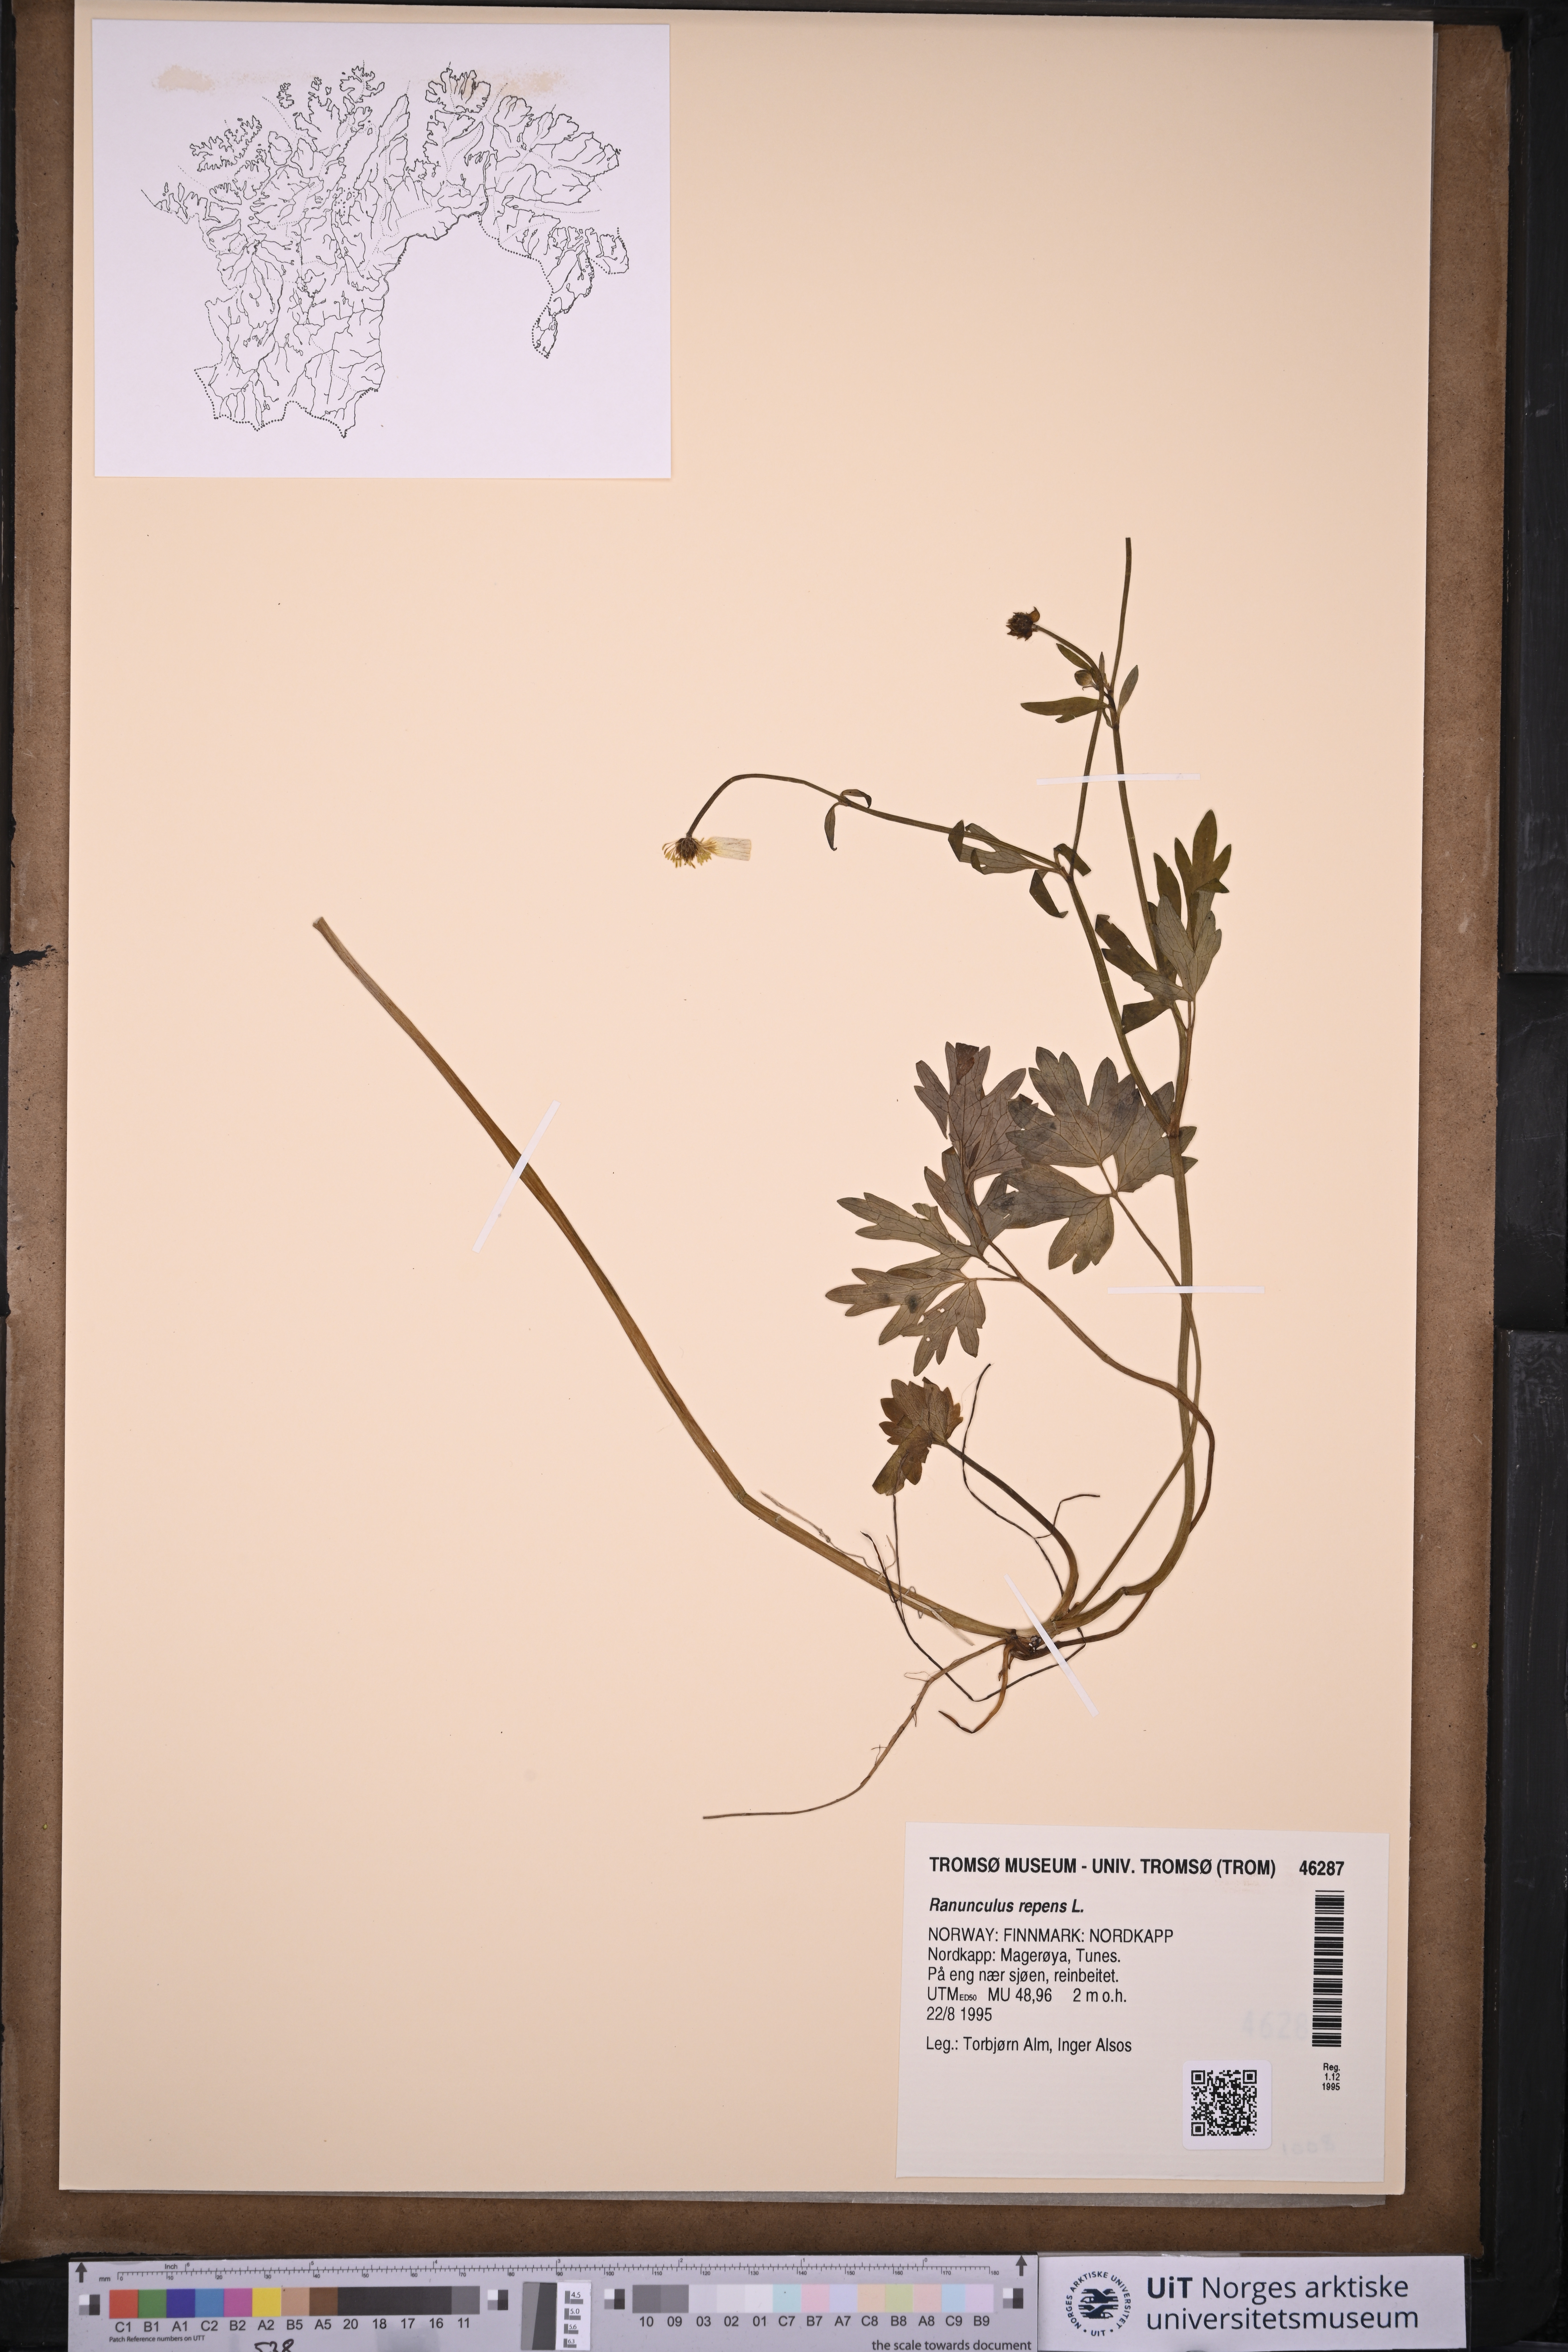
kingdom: Plantae
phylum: Tracheophyta
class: Magnoliopsida
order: Ranunculales
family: Ranunculaceae
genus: Ranunculus
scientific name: Ranunculus repens
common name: Creeping buttercup
